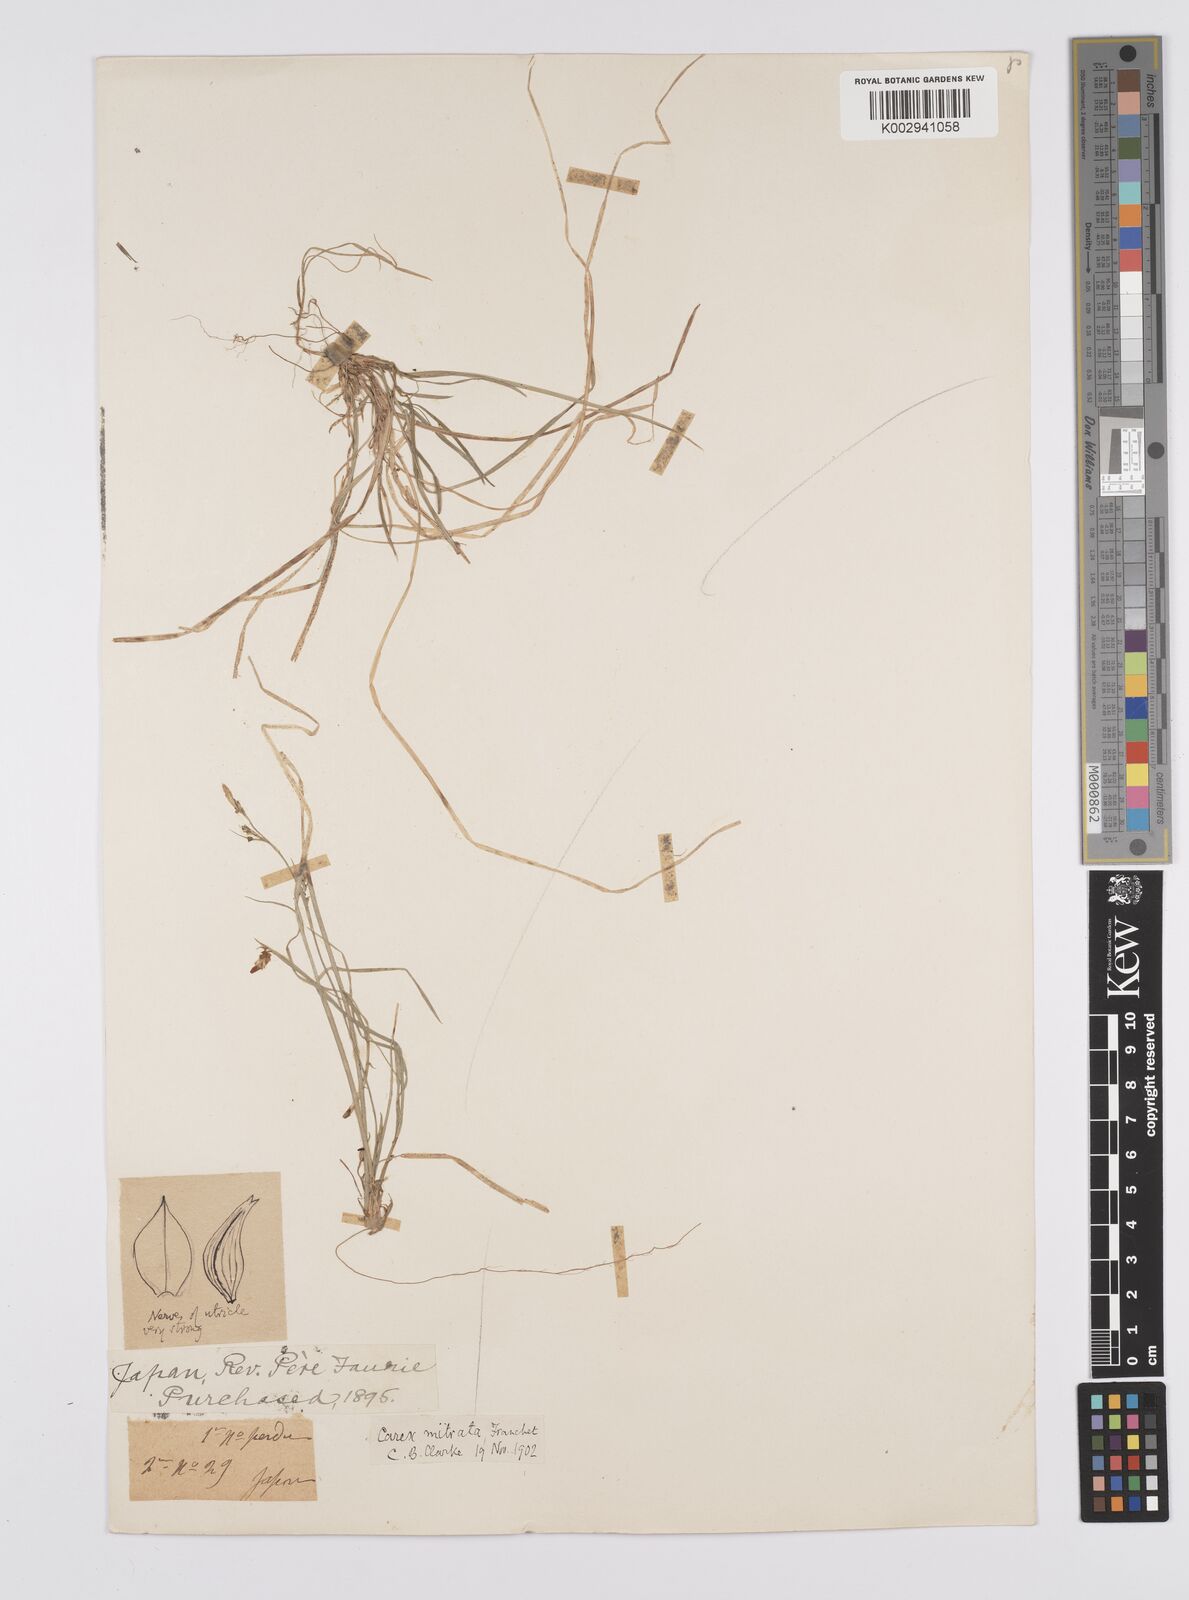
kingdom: Plantae
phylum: Tracheophyta
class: Liliopsida
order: Poales
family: Cyperaceae
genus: Carex
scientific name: Carex mitrata
